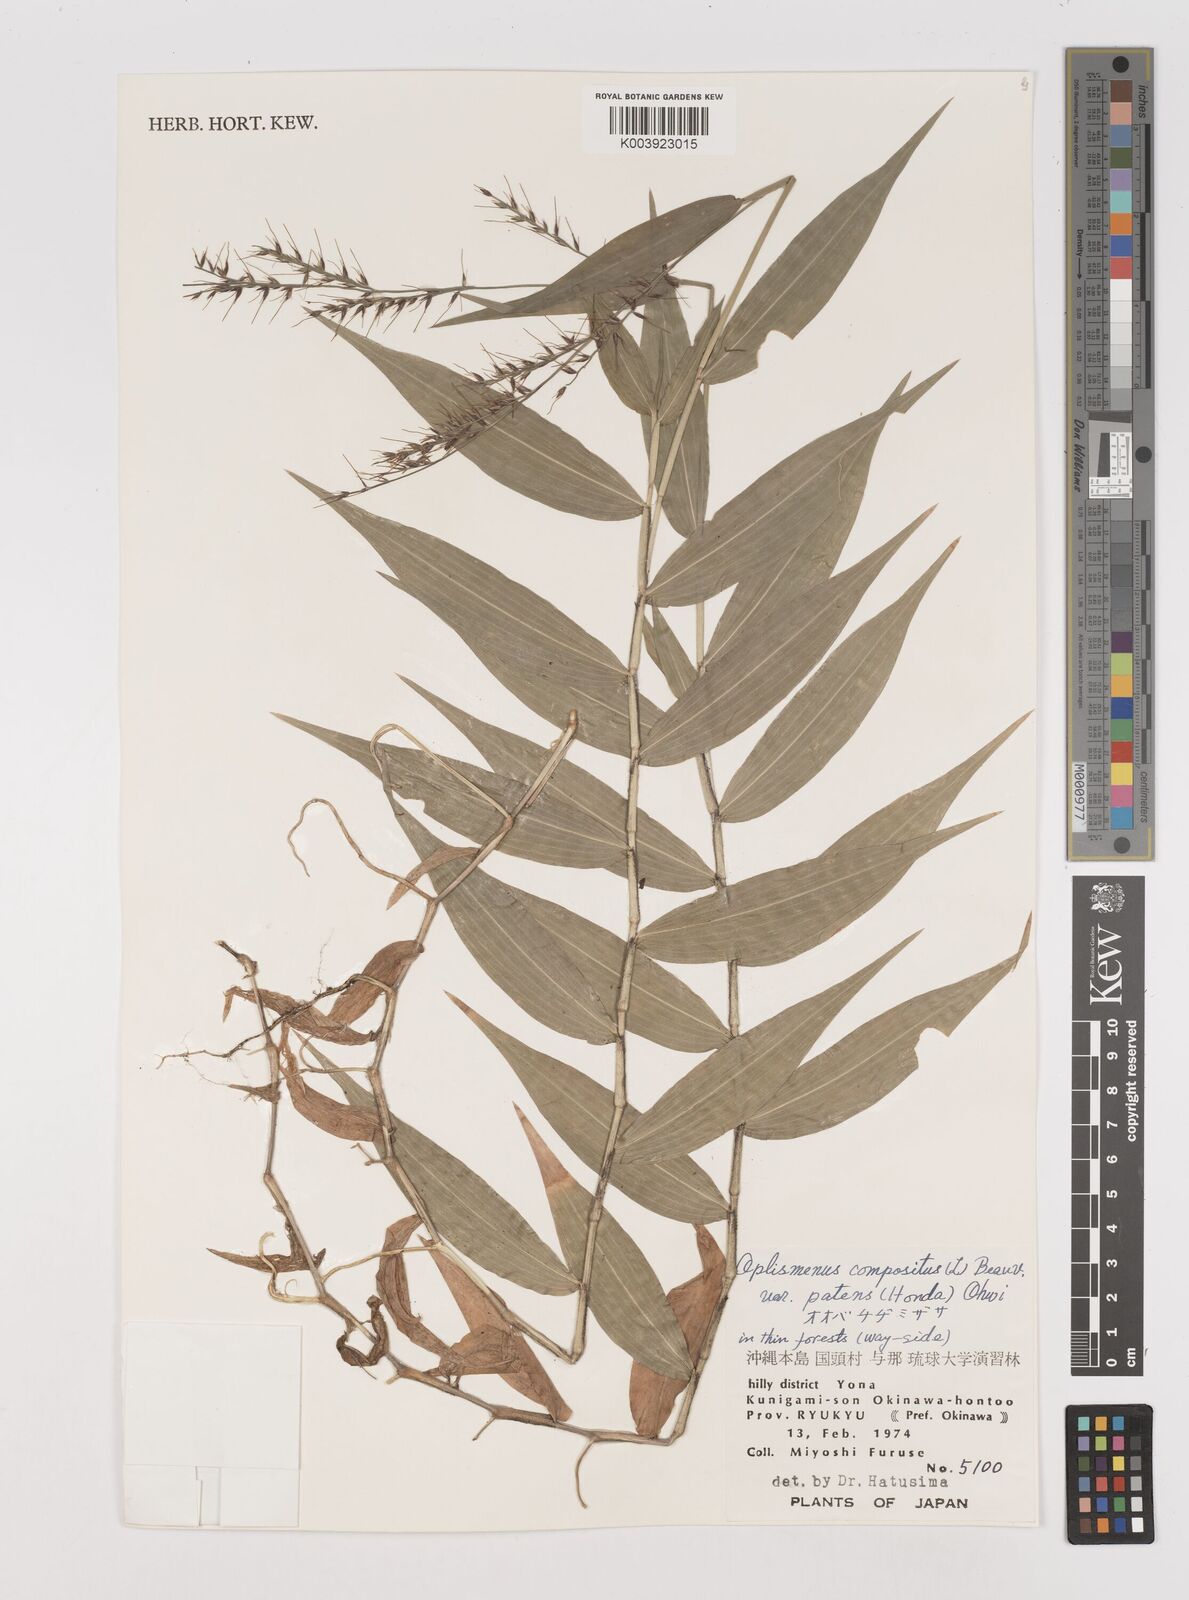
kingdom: Plantae
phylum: Tracheophyta
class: Liliopsida
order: Poales
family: Poaceae
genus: Oplismenus
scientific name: Oplismenus compositus
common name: Running mountain grass
